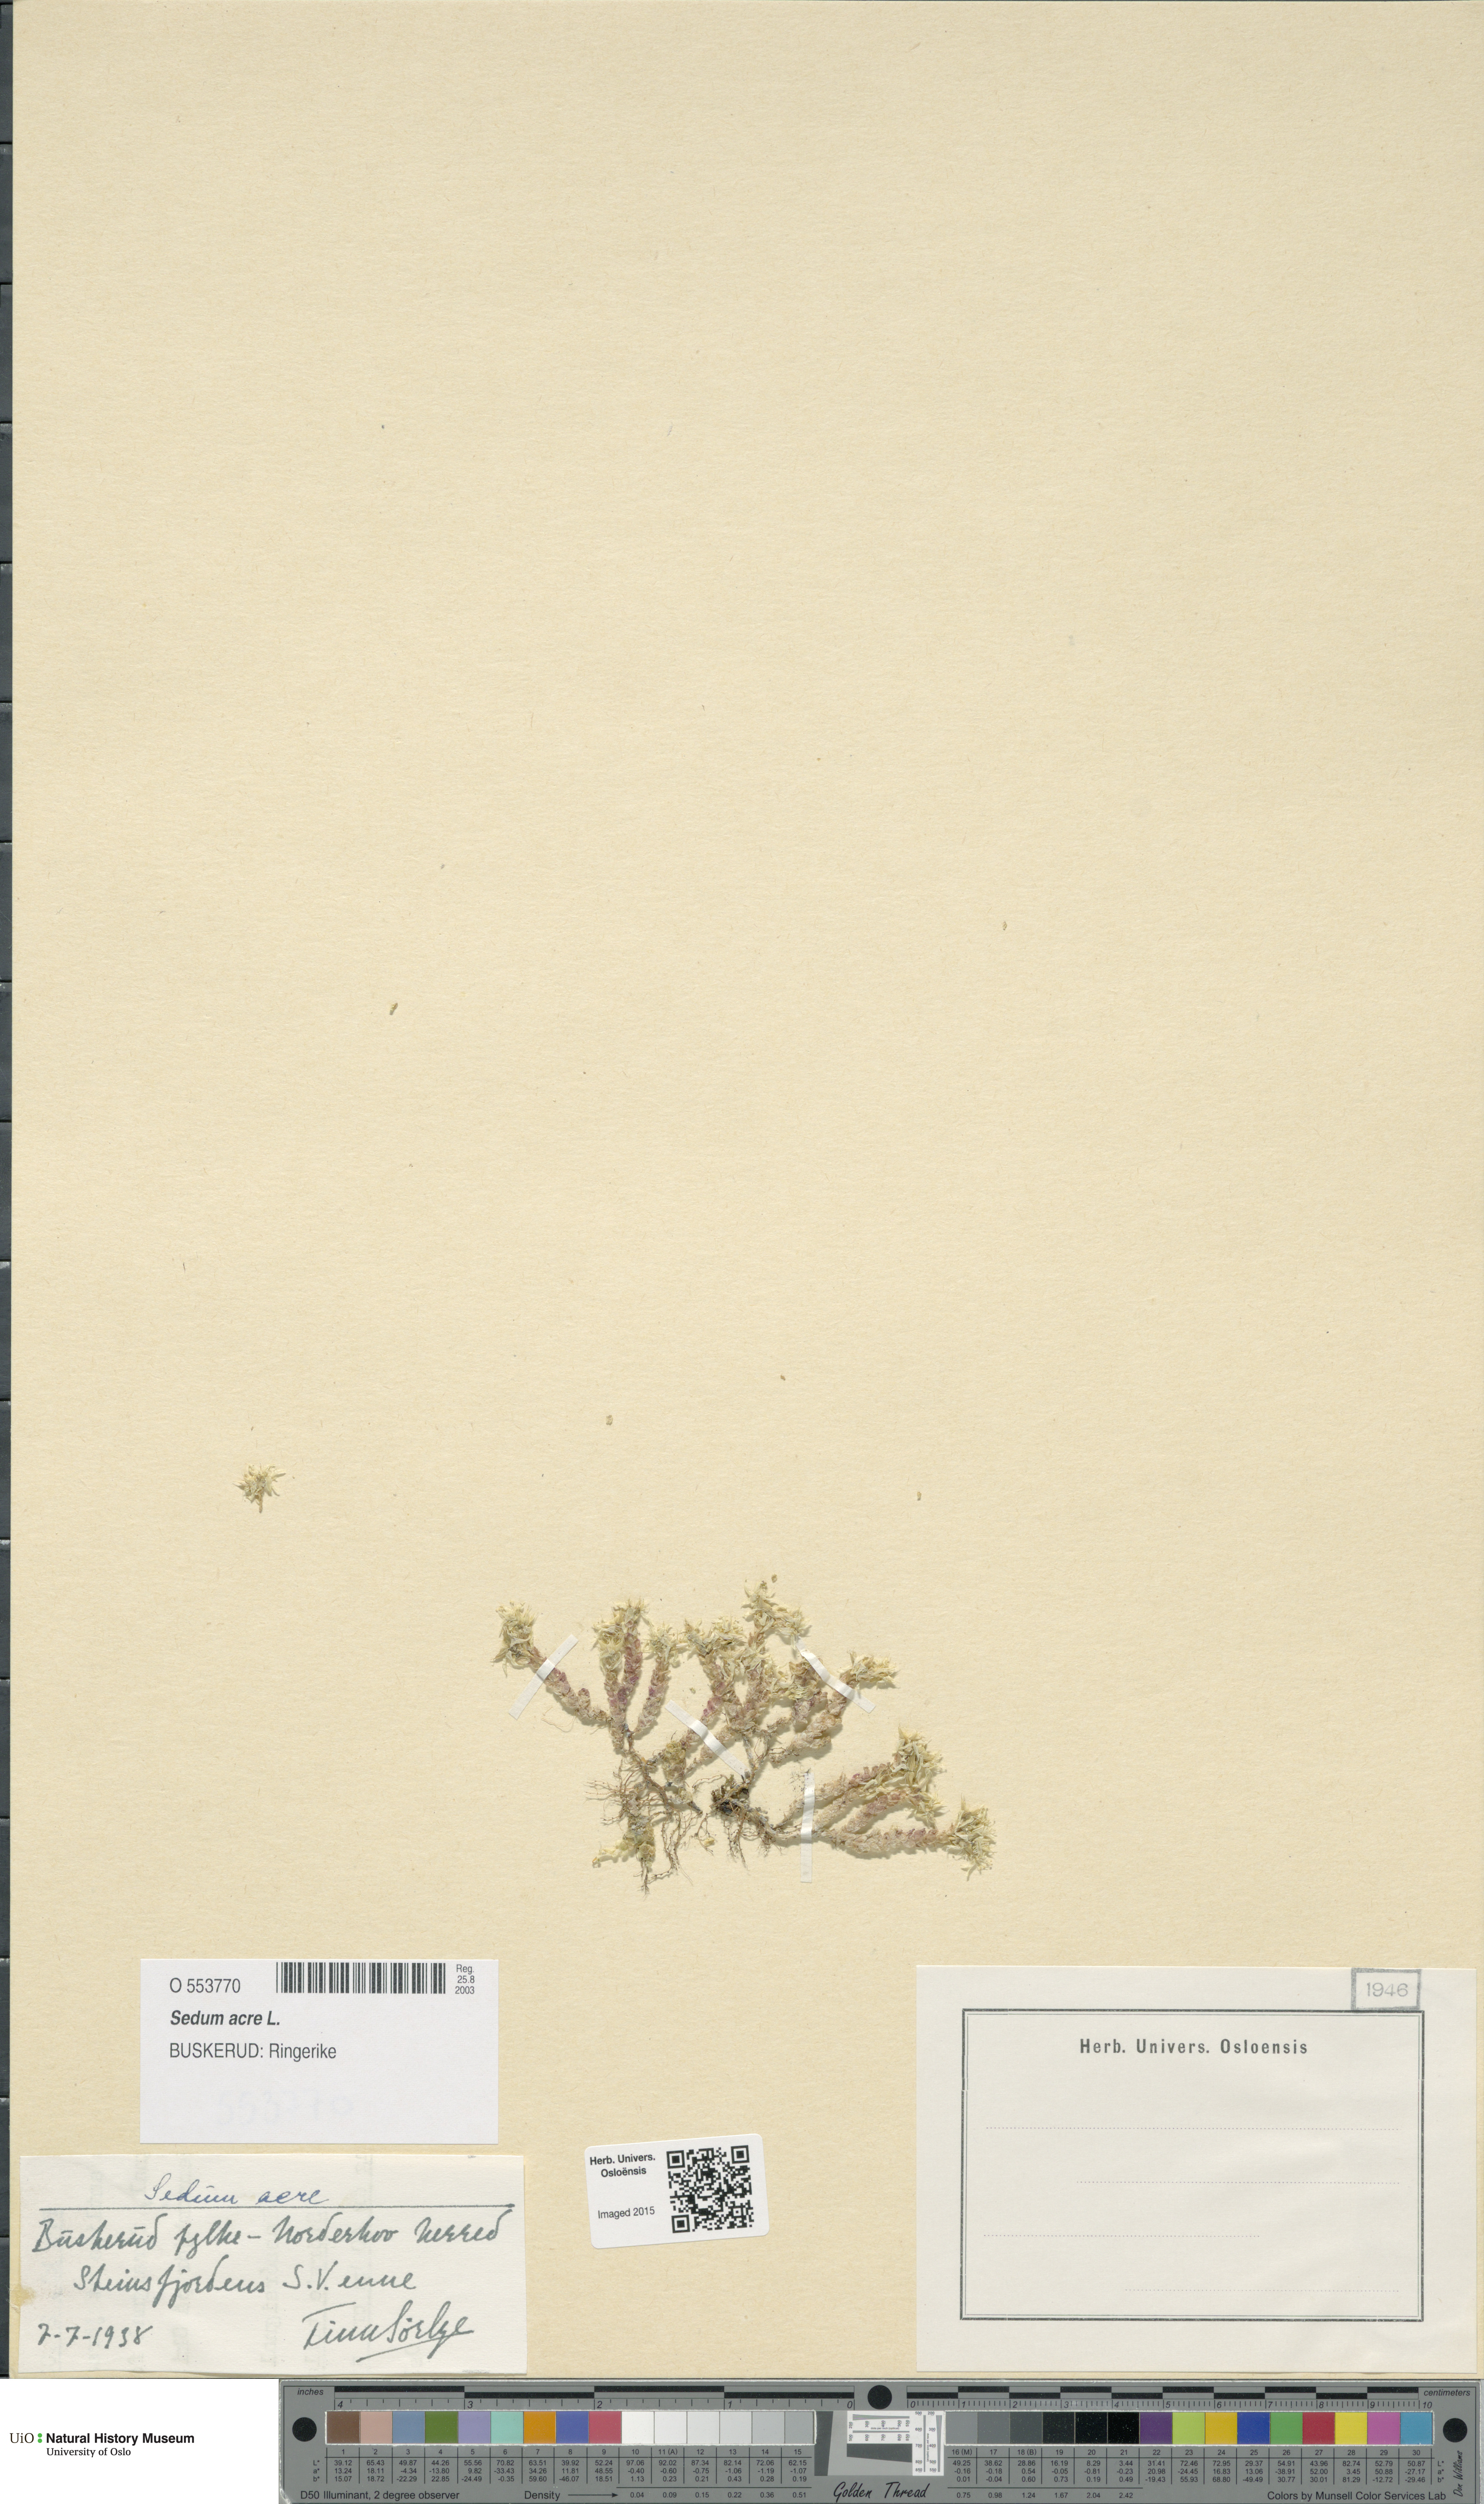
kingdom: Plantae
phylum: Tracheophyta
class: Magnoliopsida
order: Saxifragales
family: Crassulaceae
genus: Sedum
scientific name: Sedum acre
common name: Biting stonecrop
